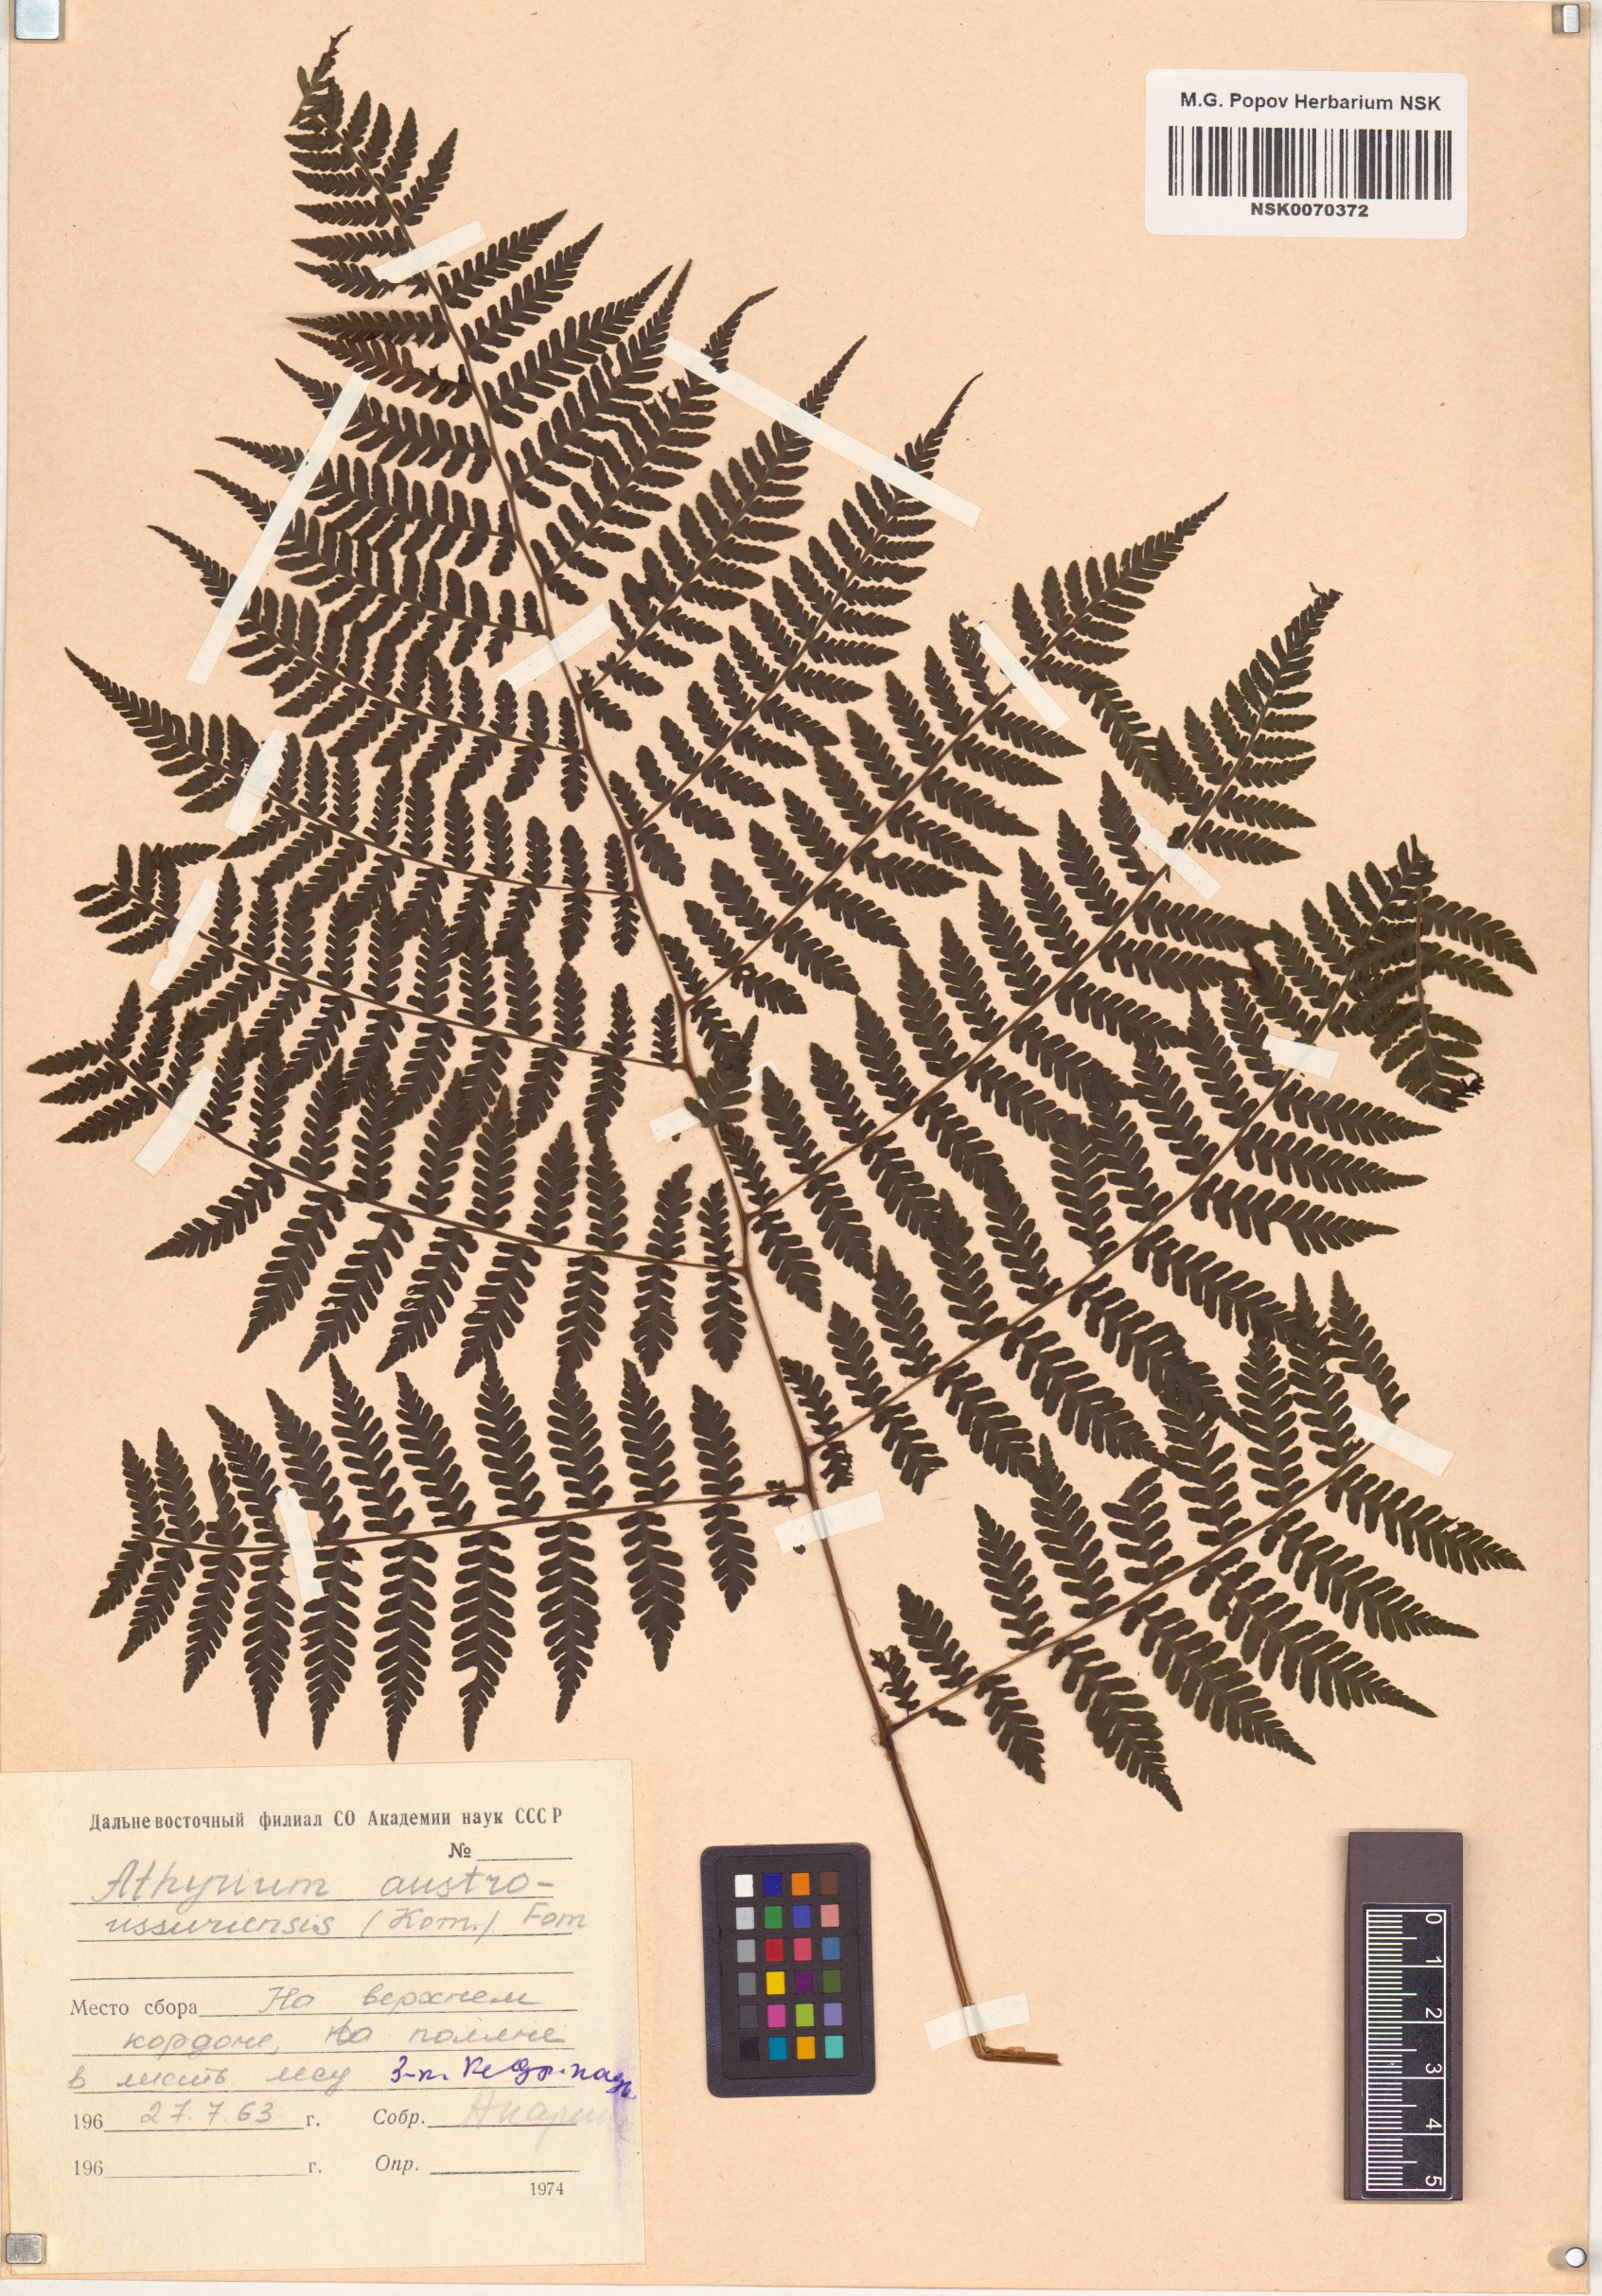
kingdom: Plantae
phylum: Tracheophyta
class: Polypodiopsida
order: Polypodiales
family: Athyriaceae
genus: Cornopteris
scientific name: Cornopteris crenulatoserrulata
